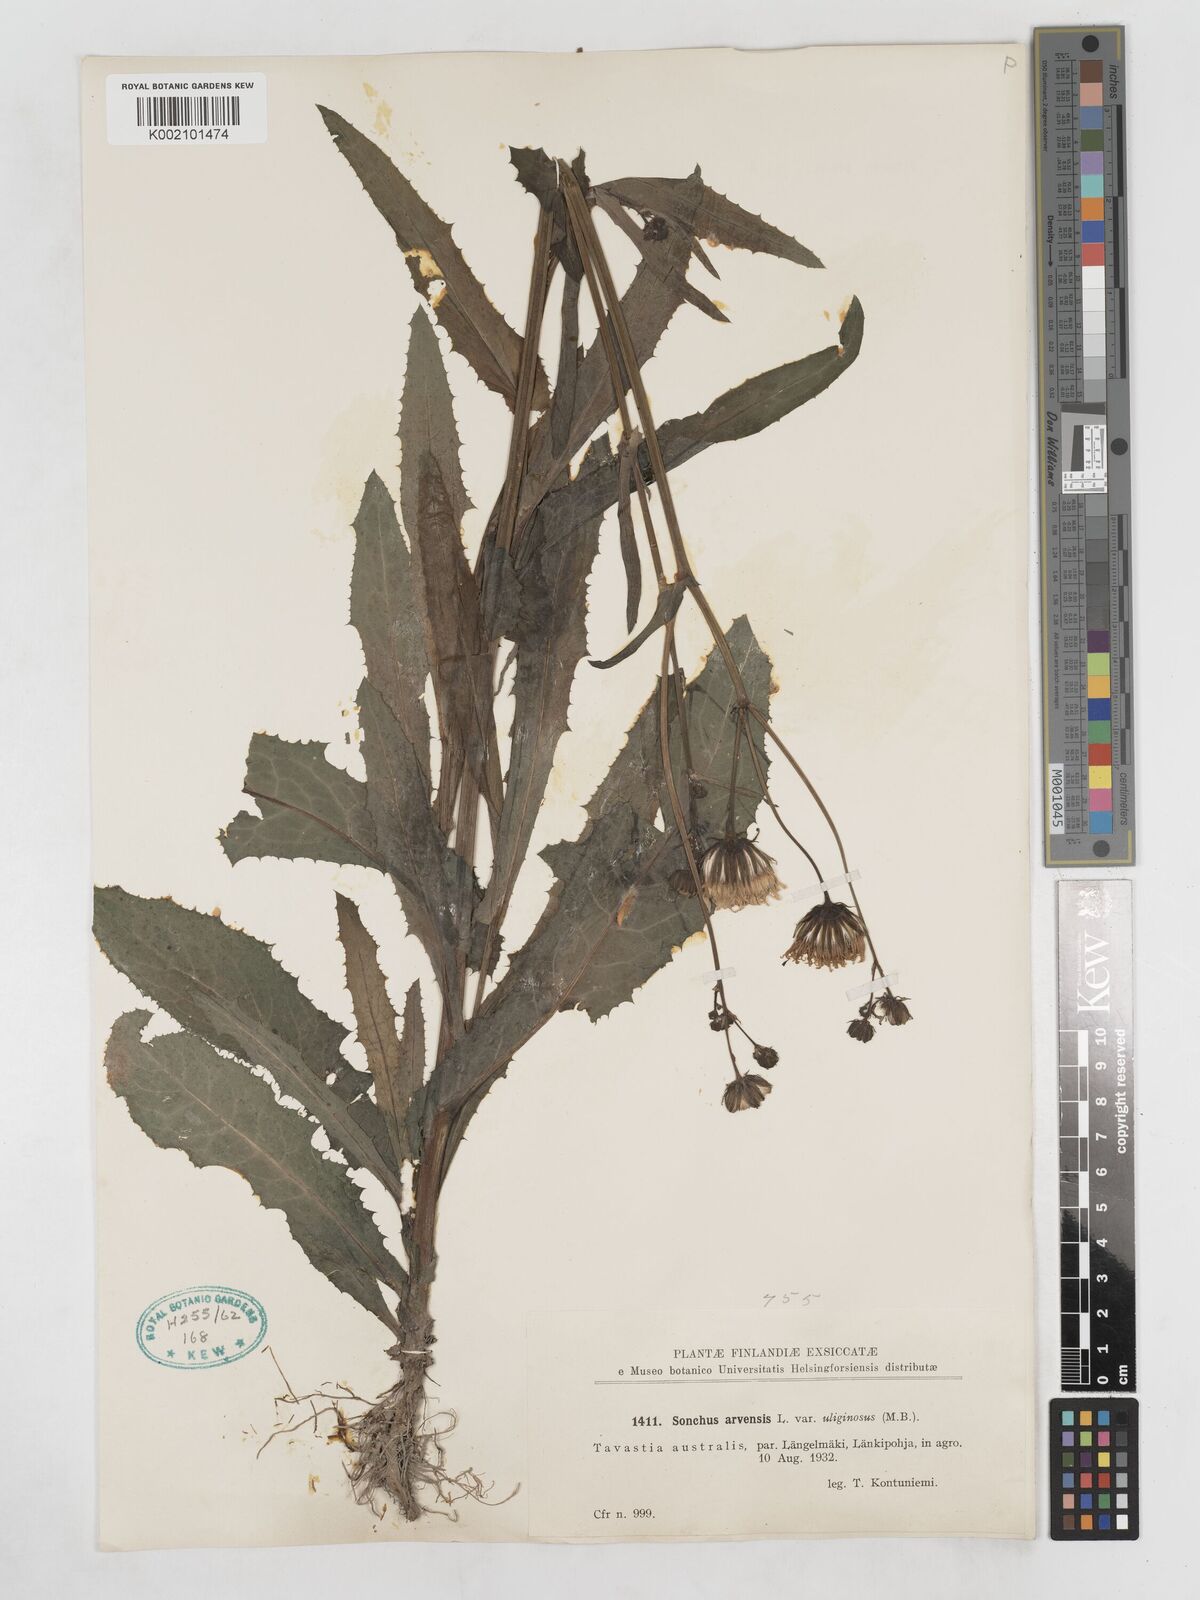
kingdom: Plantae
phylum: Tracheophyta
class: Magnoliopsida
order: Asterales
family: Asteraceae
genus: Sonchus
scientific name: Sonchus arvensis
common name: Perennial sow-thistle
